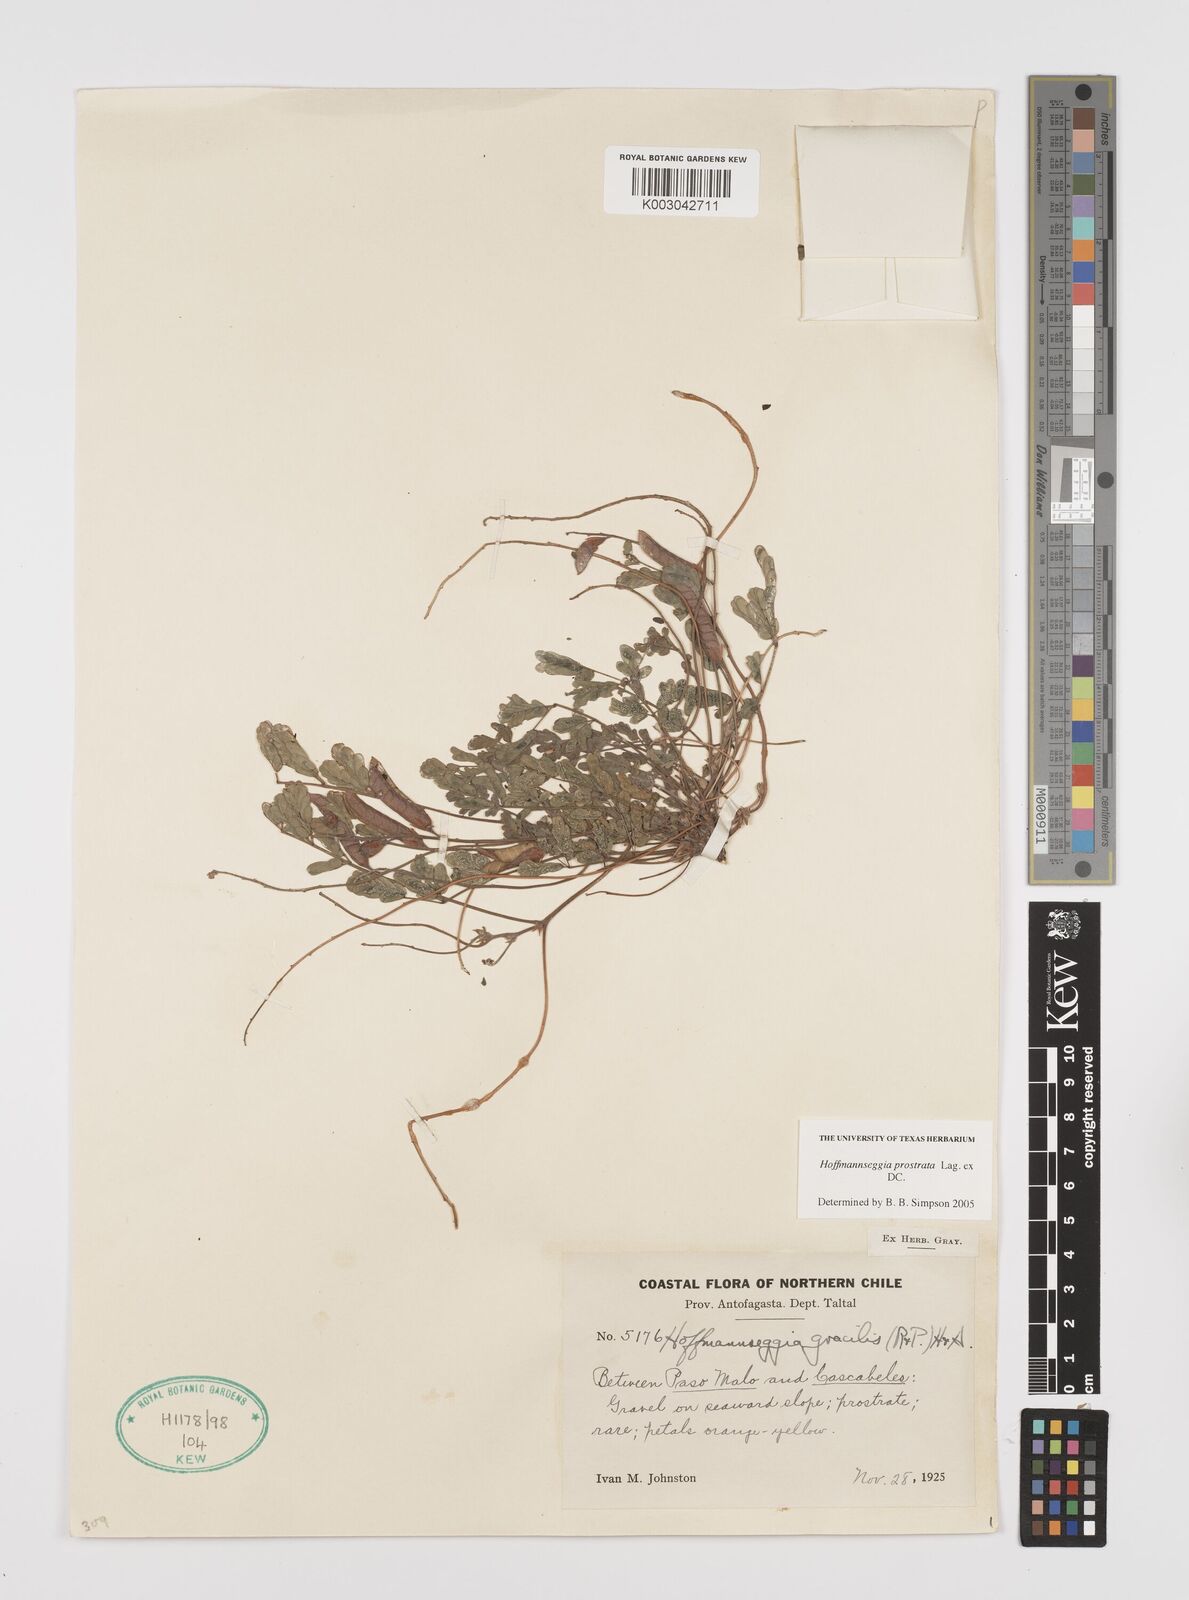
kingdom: Plantae
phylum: Tracheophyta
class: Magnoliopsida
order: Fabales
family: Fabaceae
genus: Hoffmannseggia
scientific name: Hoffmannseggia prostrata
